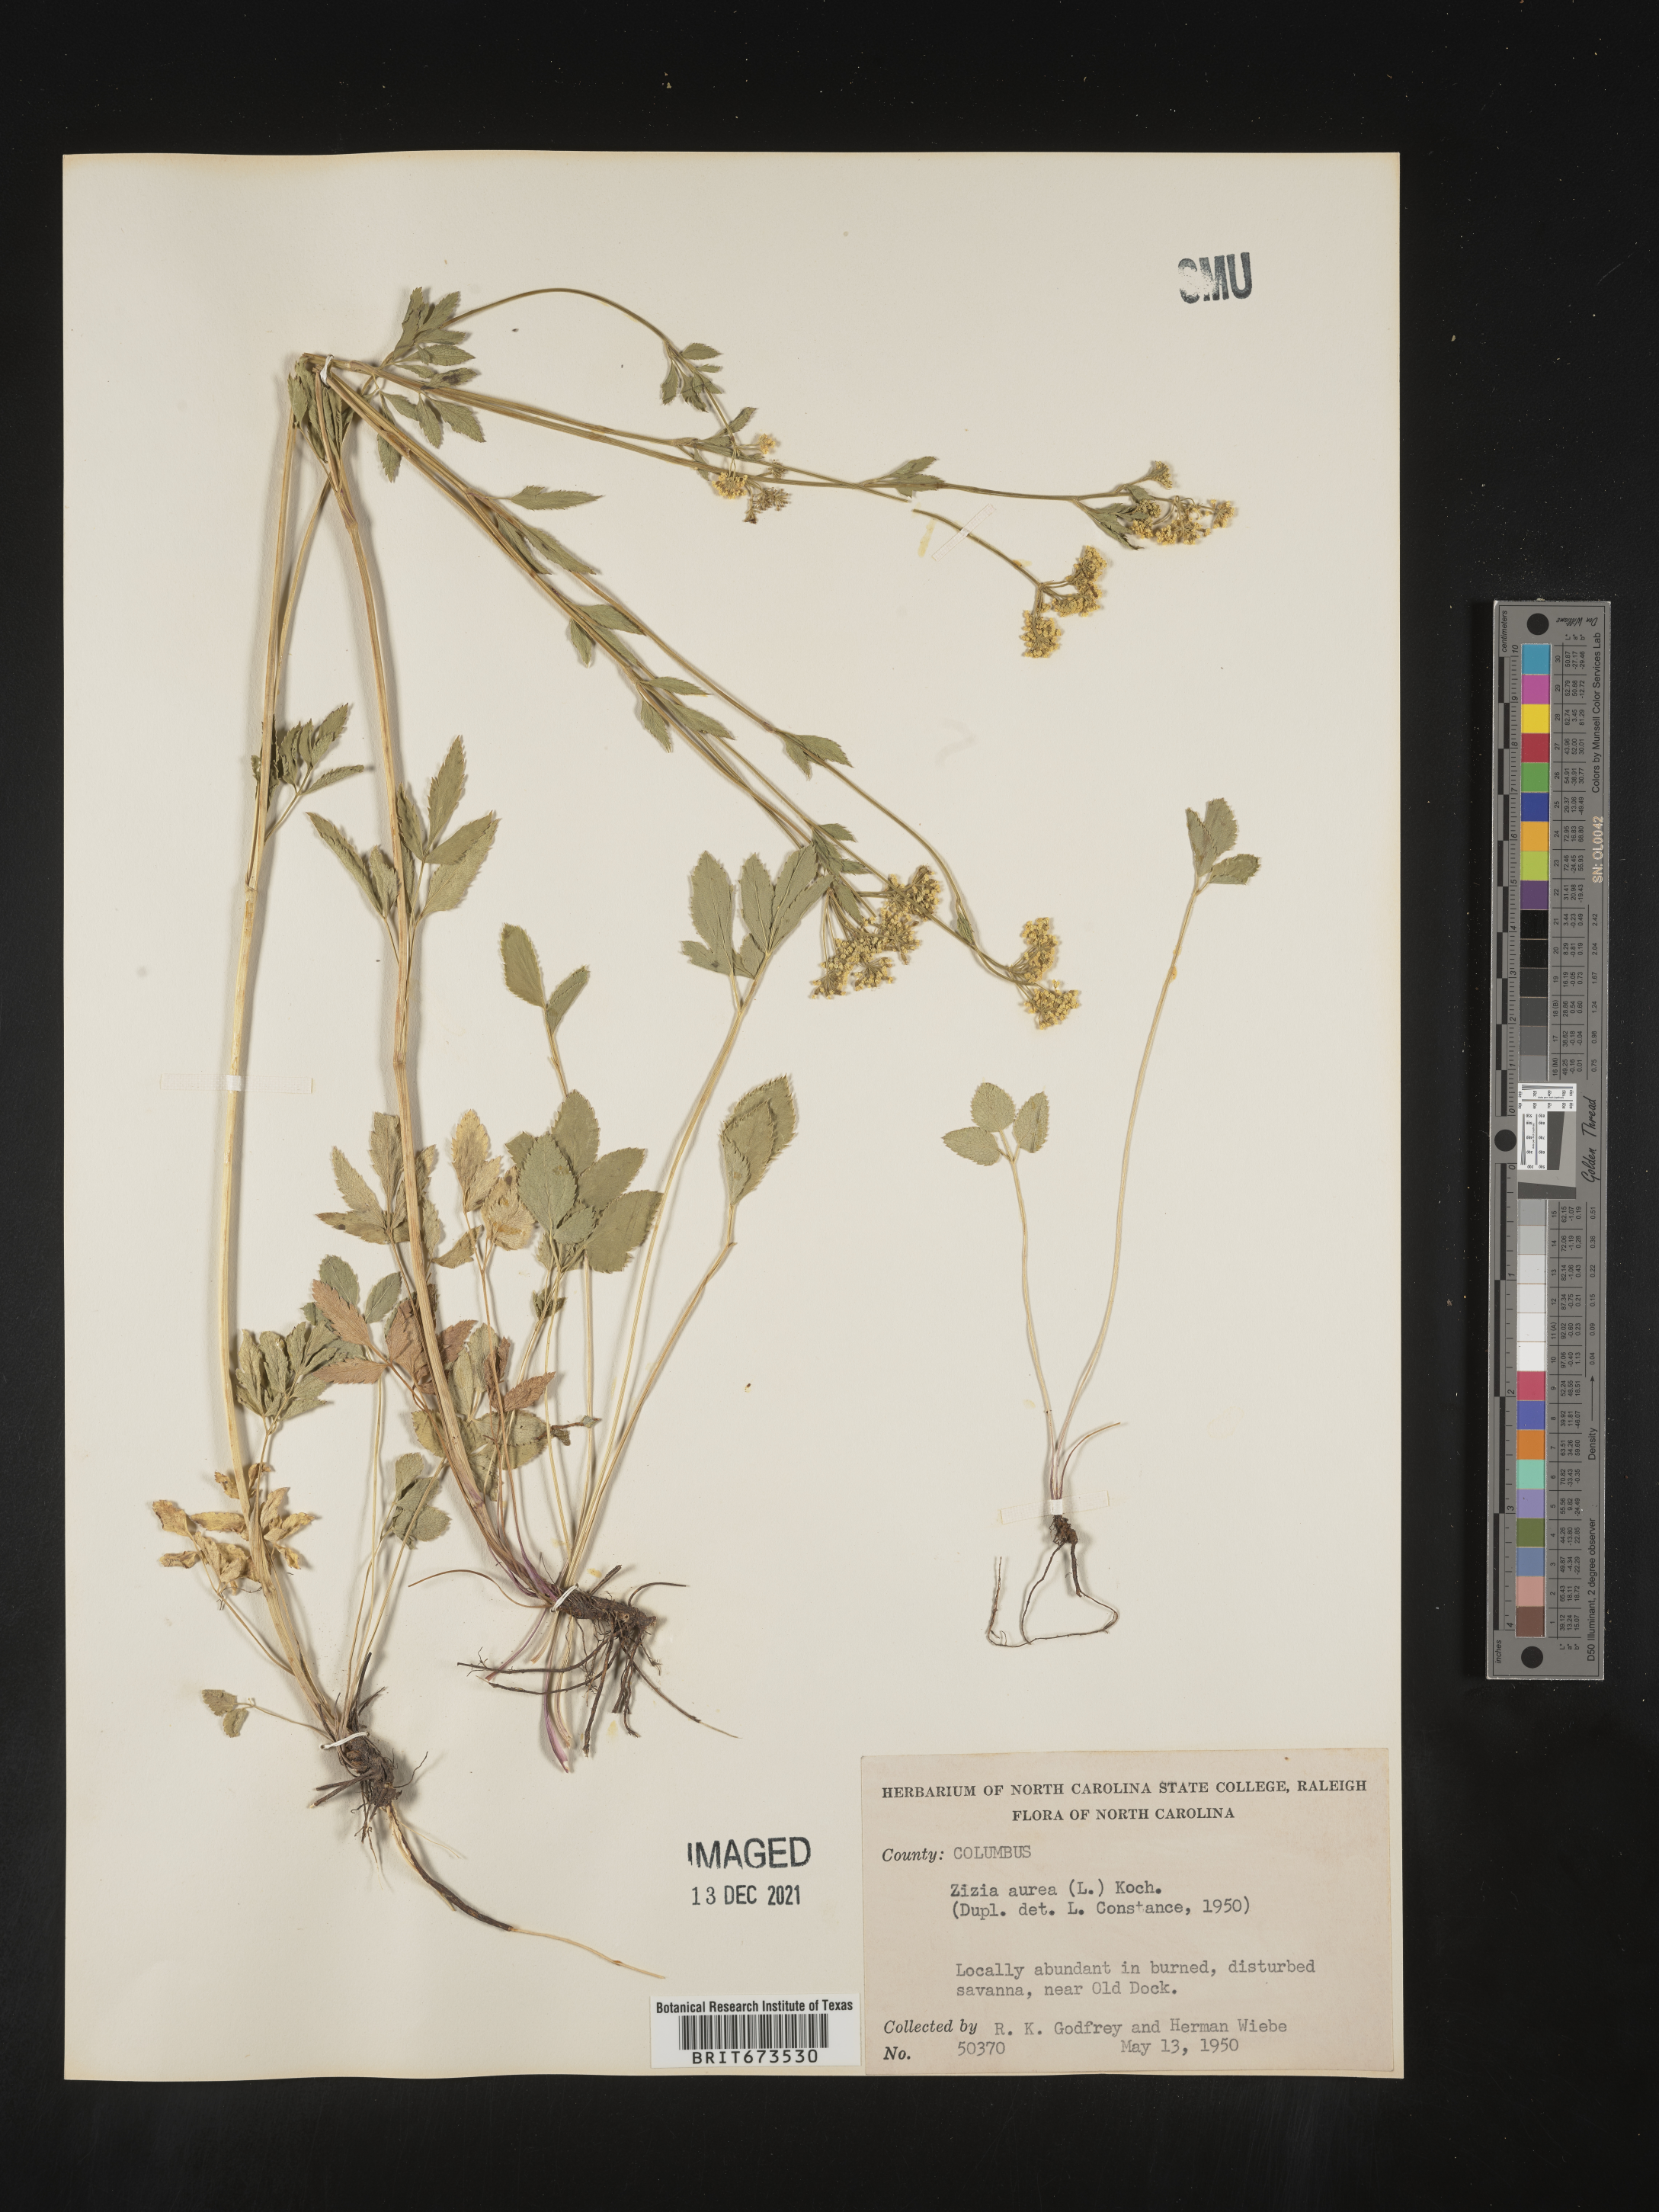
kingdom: Plantae
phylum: Tracheophyta
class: Magnoliopsida
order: Apiales
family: Apiaceae
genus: Zizia
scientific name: Zizia aurea
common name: Golden alexanders
